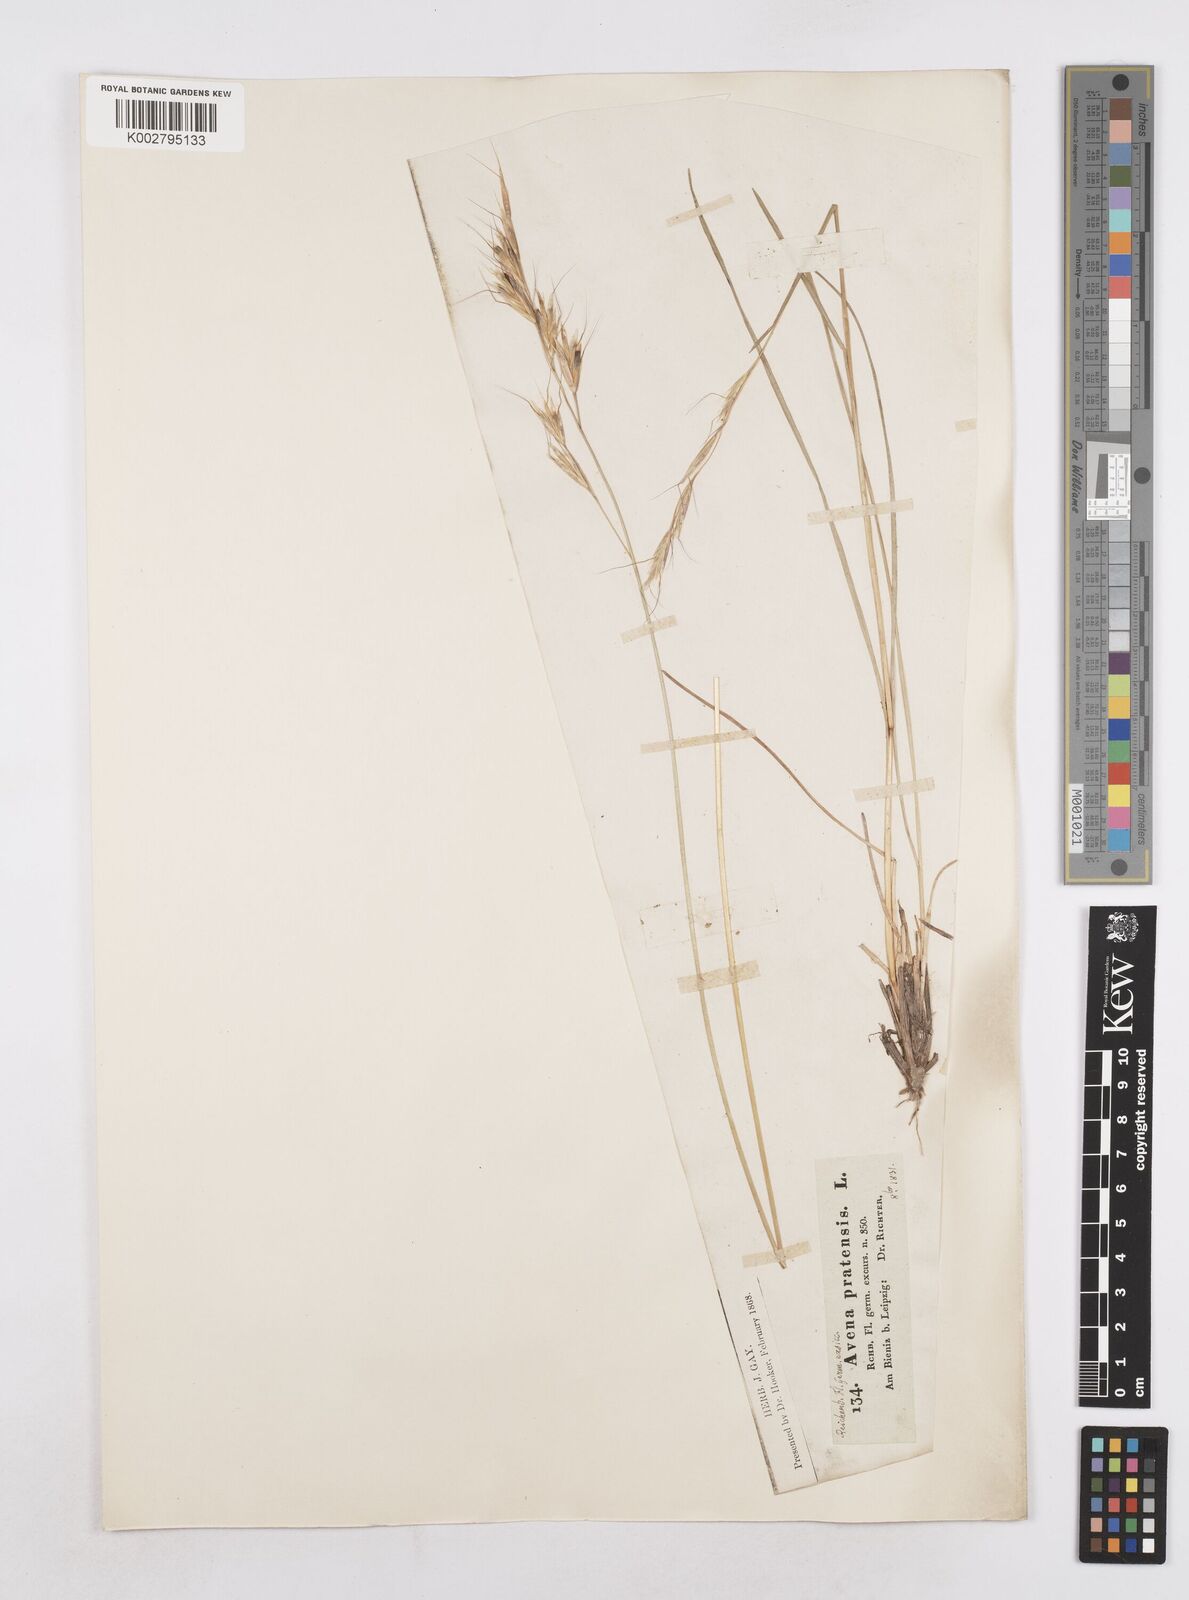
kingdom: Plantae
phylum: Tracheophyta
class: Liliopsida
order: Poales
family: Poaceae
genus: Helictochloa
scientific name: Helictochloa pratensis
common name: Meadow oat grass
